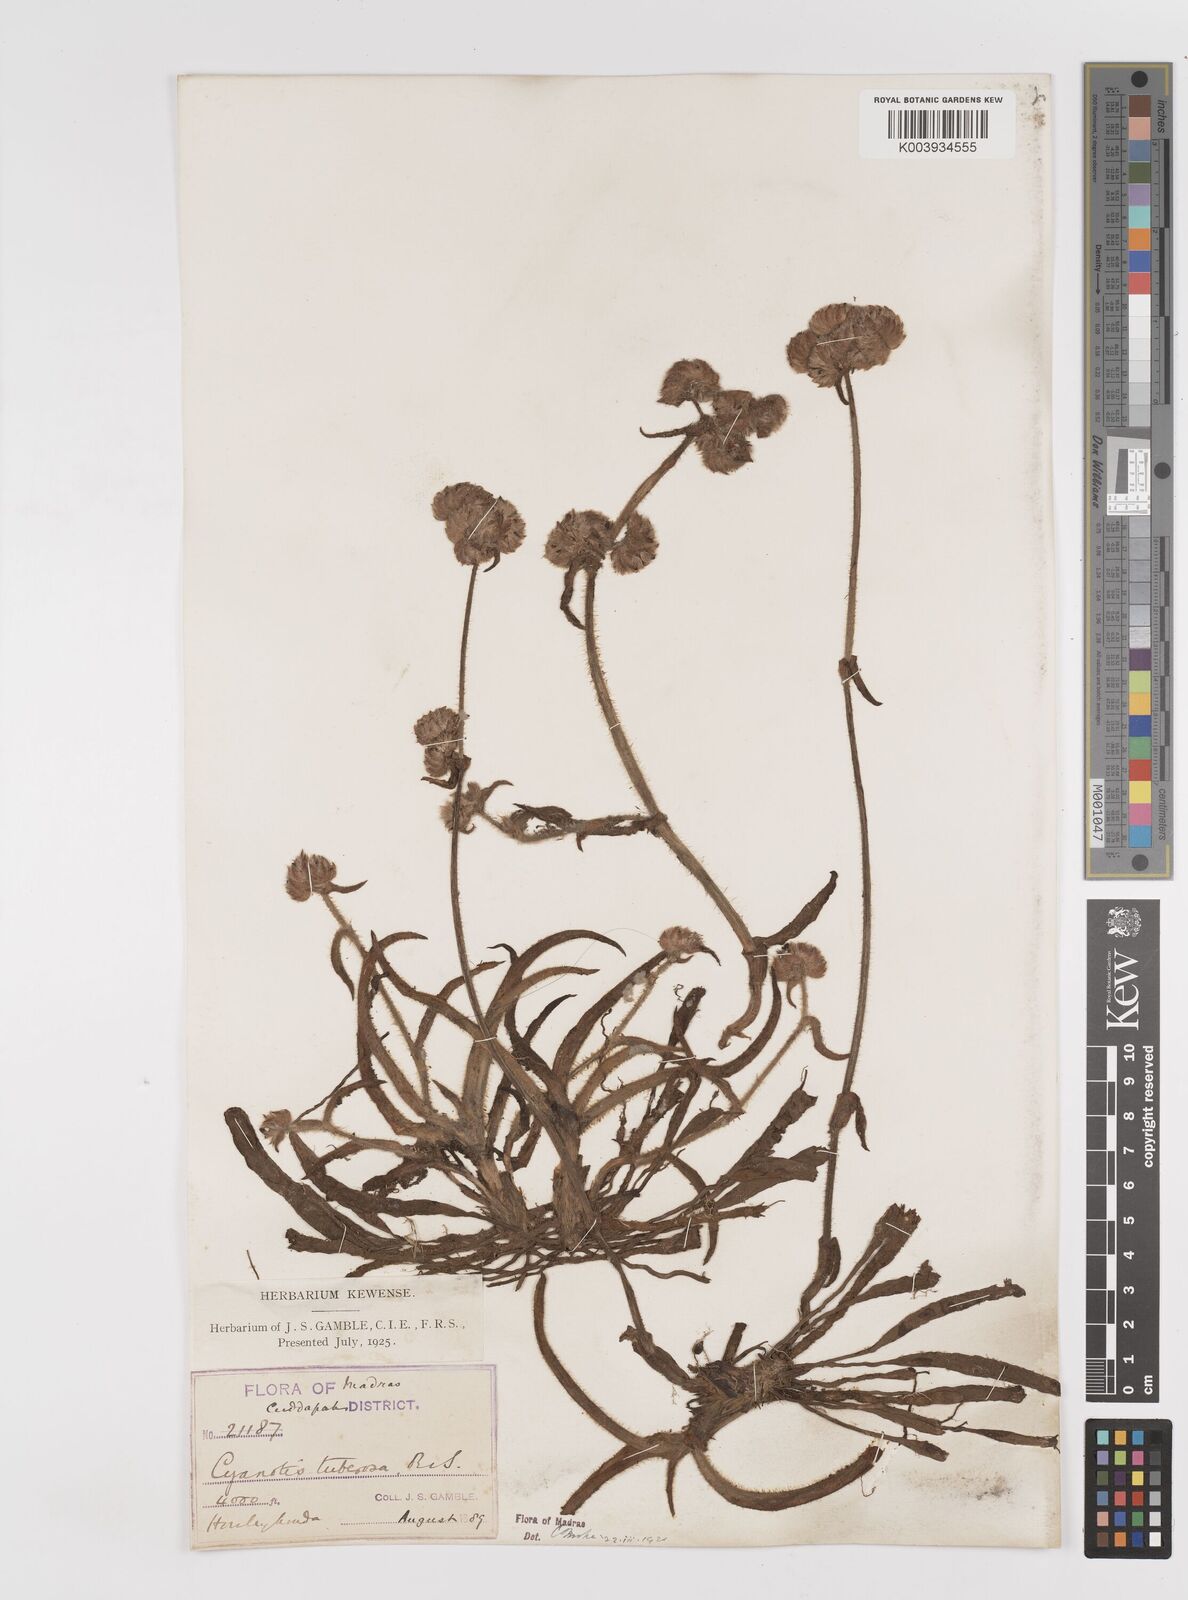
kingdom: Plantae
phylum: Tracheophyta
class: Liliopsida
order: Commelinales
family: Commelinaceae
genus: Cyanotis
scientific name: Cyanotis tuberosa
